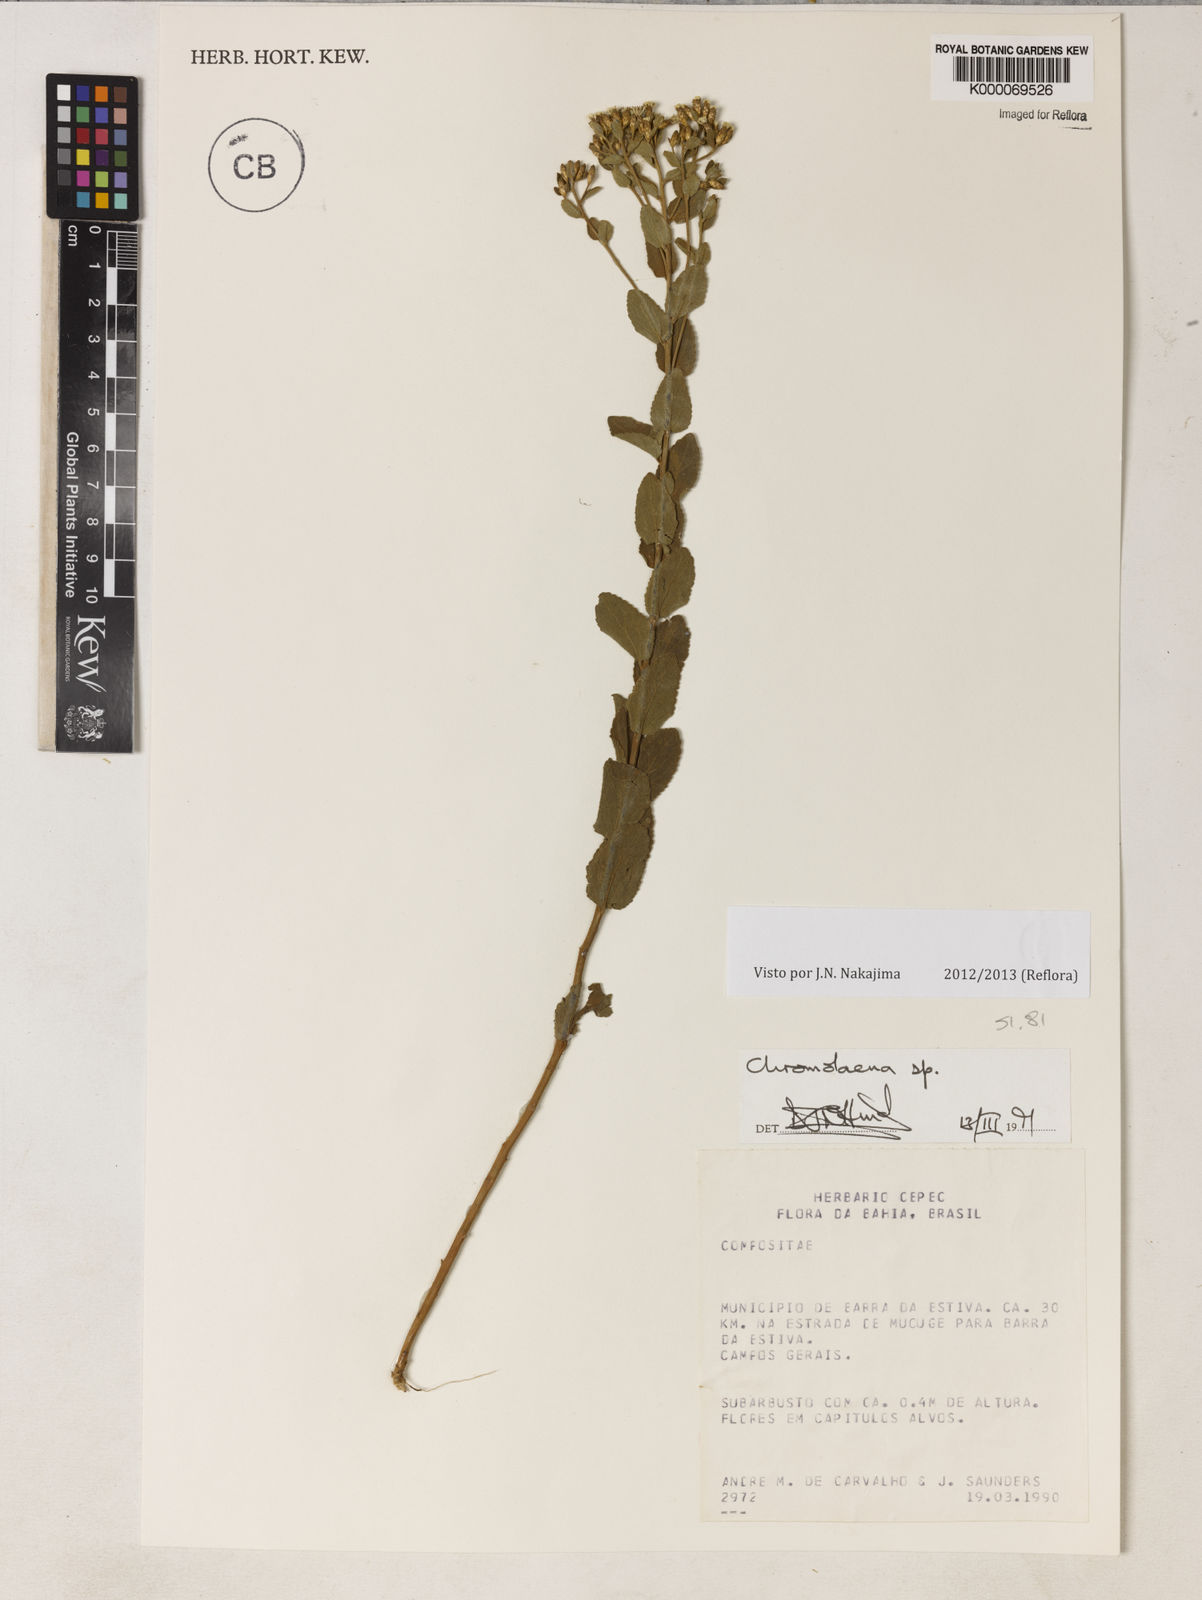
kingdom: Plantae
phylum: Tracheophyta
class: Magnoliopsida
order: Asterales
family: Asteraceae
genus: Chromolaena
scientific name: Chromolaena cinereoviridis
